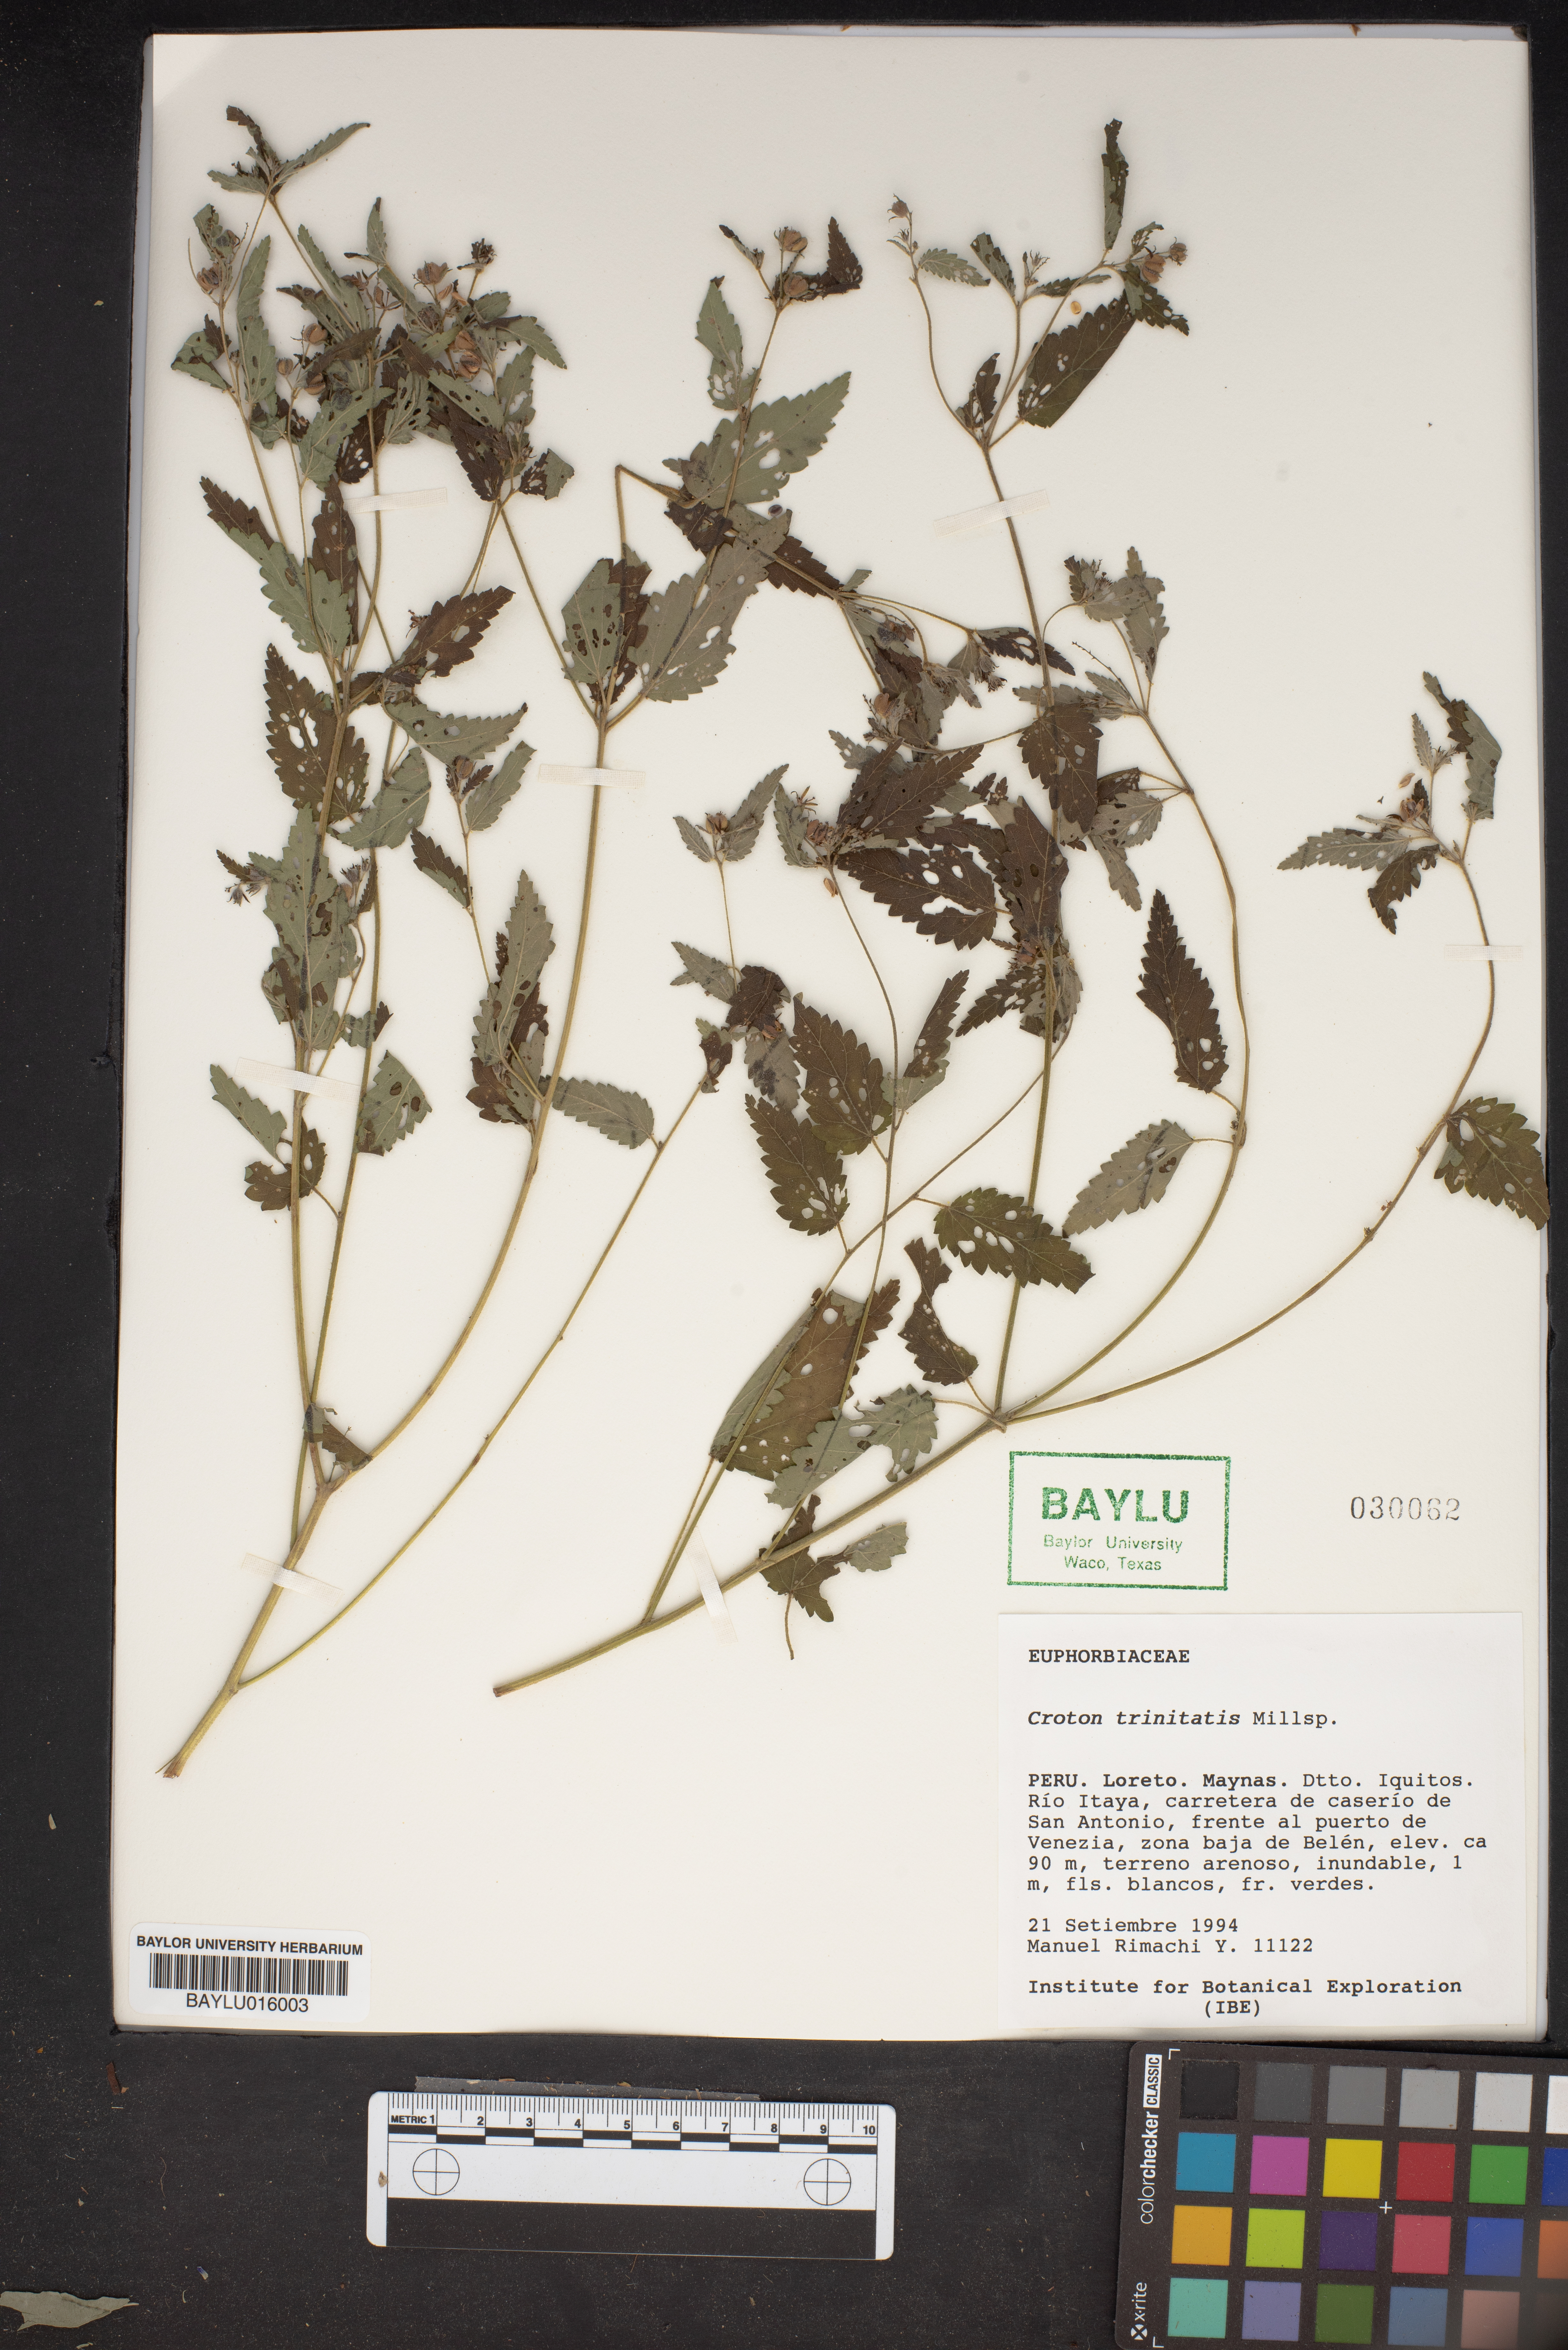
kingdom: Plantae
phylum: Tracheophyta
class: Magnoliopsida
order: Malpighiales
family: Euphorbiaceae
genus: Croton
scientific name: Croton trinitatis
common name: Roadside croton
